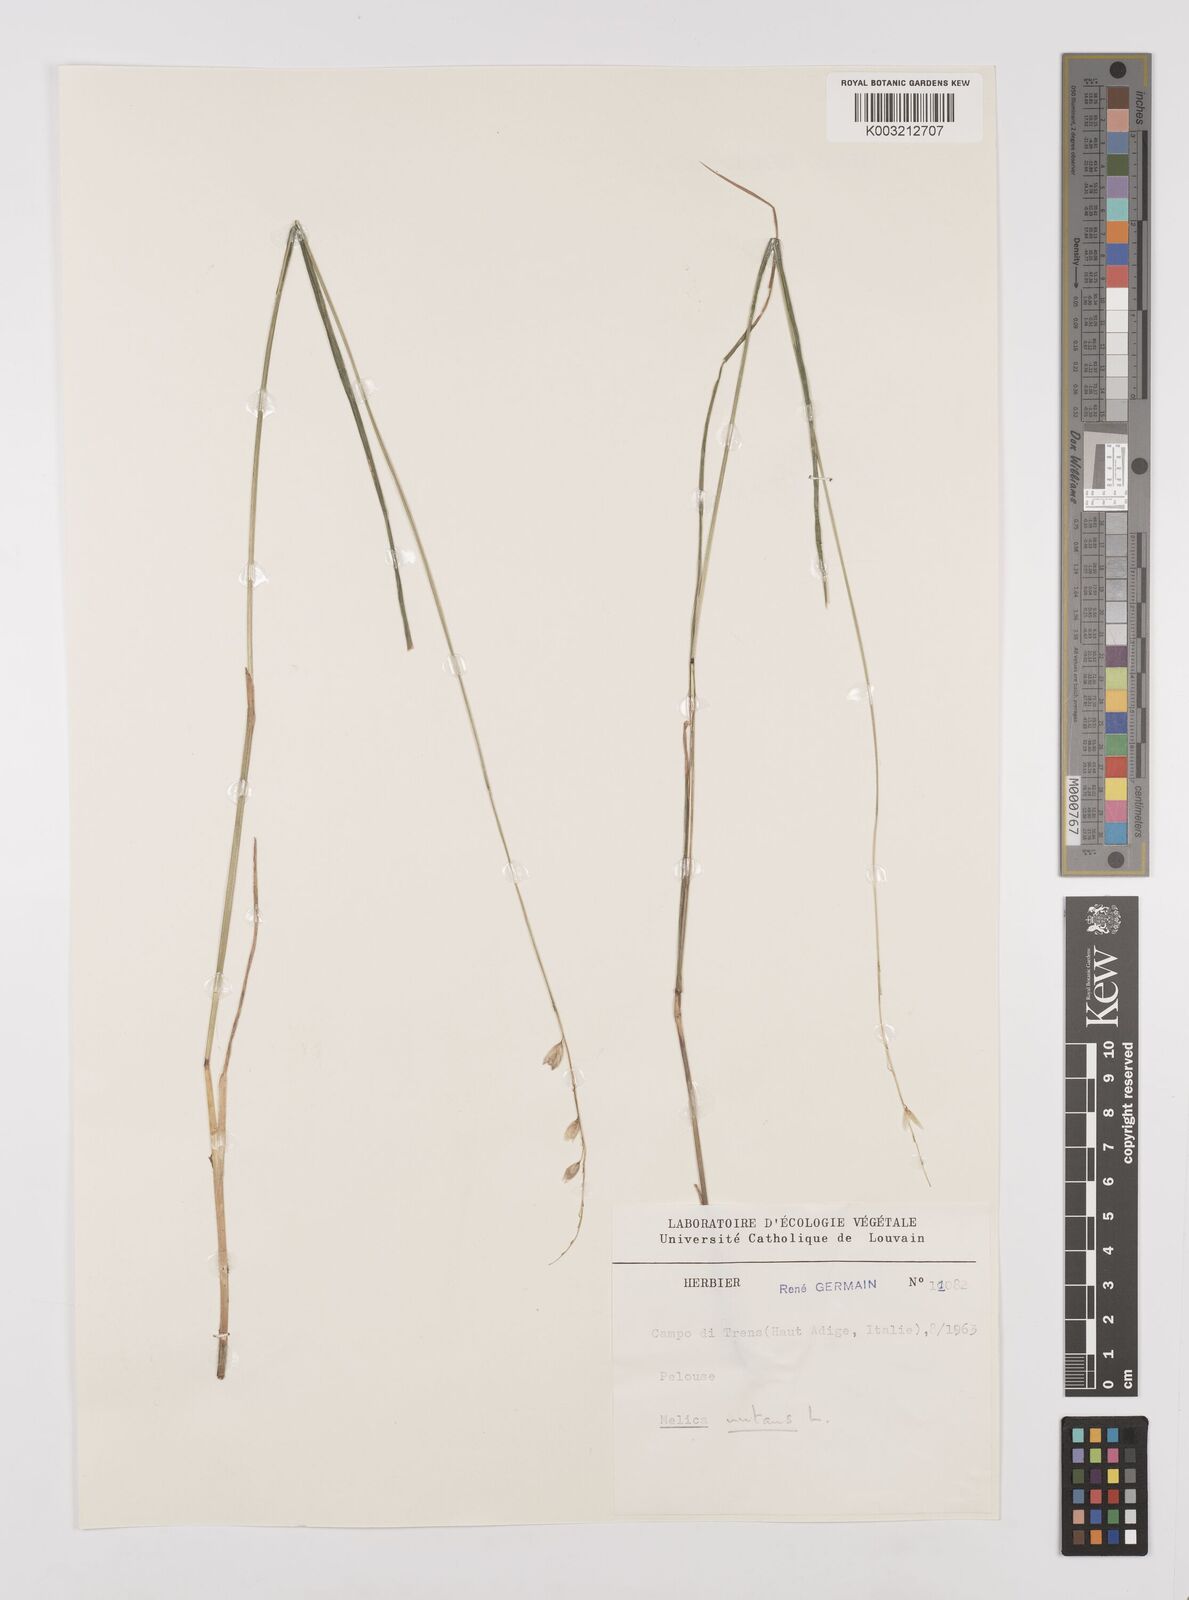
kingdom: Plantae
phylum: Tracheophyta
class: Liliopsida
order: Poales
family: Poaceae
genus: Melica
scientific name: Melica nutans
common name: Mountain melick
